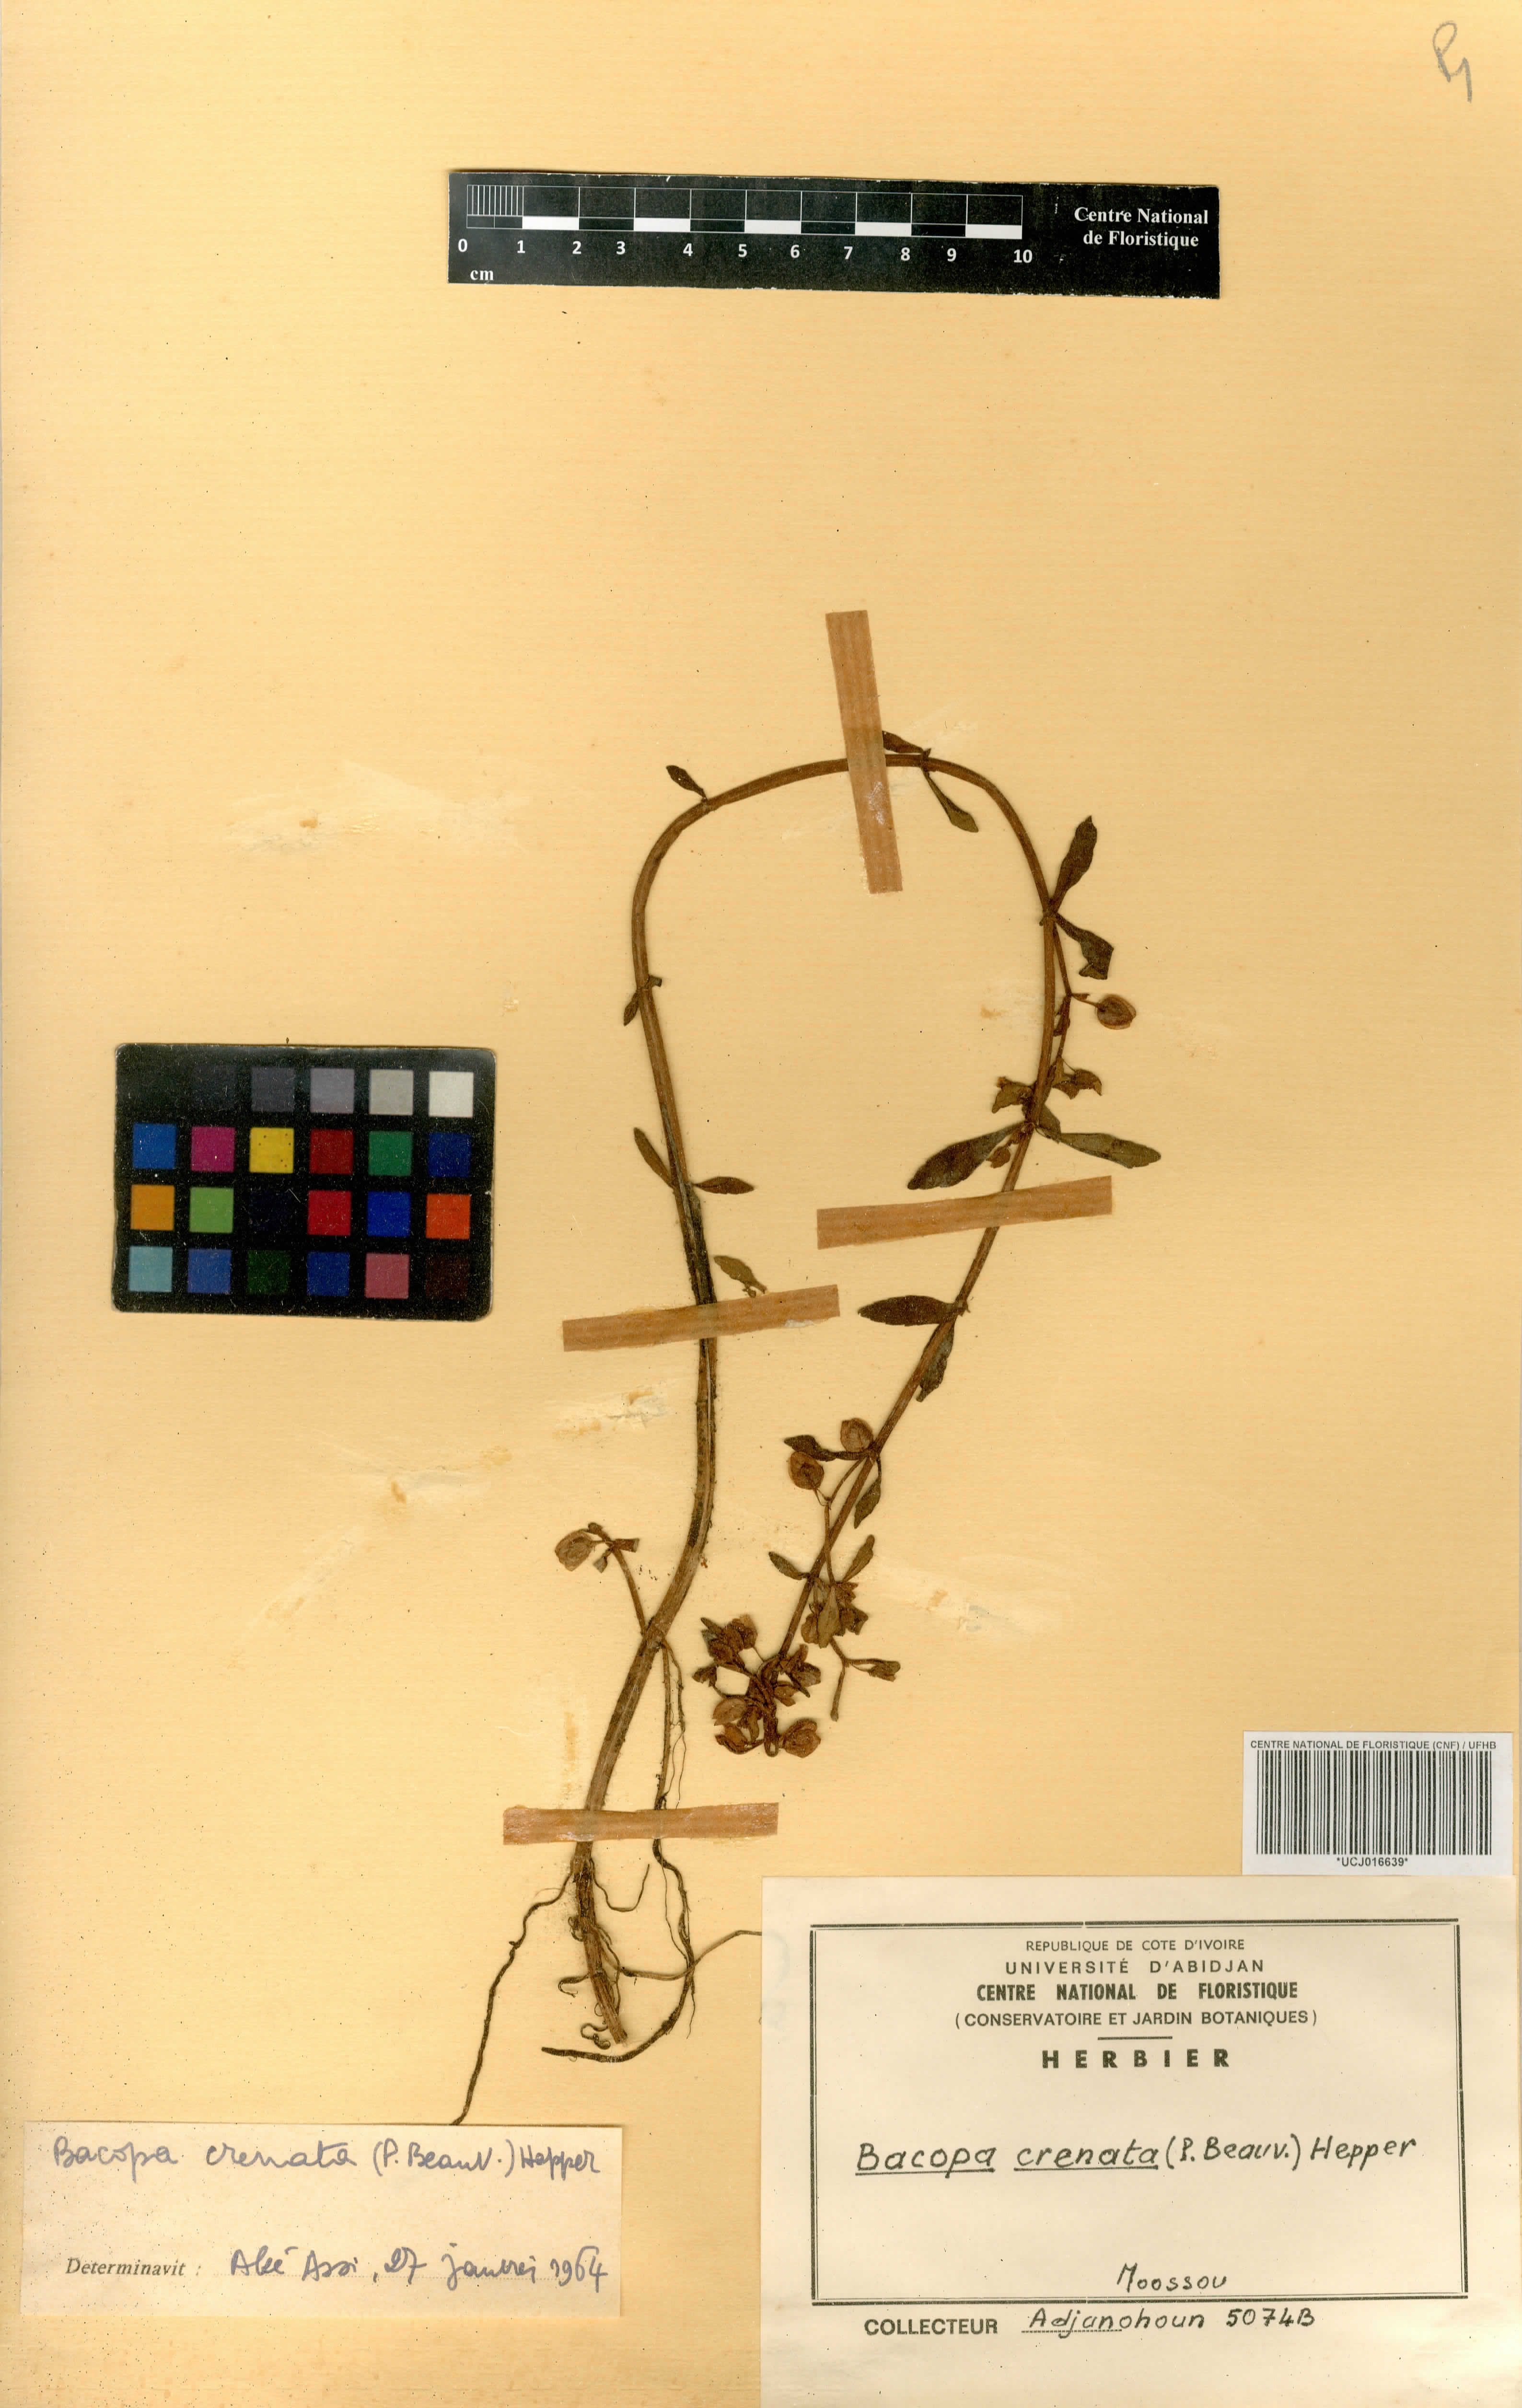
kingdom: Plantae
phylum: Tracheophyta
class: Magnoliopsida
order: Lamiales
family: Plantaginaceae
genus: Bacopa
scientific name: Bacopa crenata
